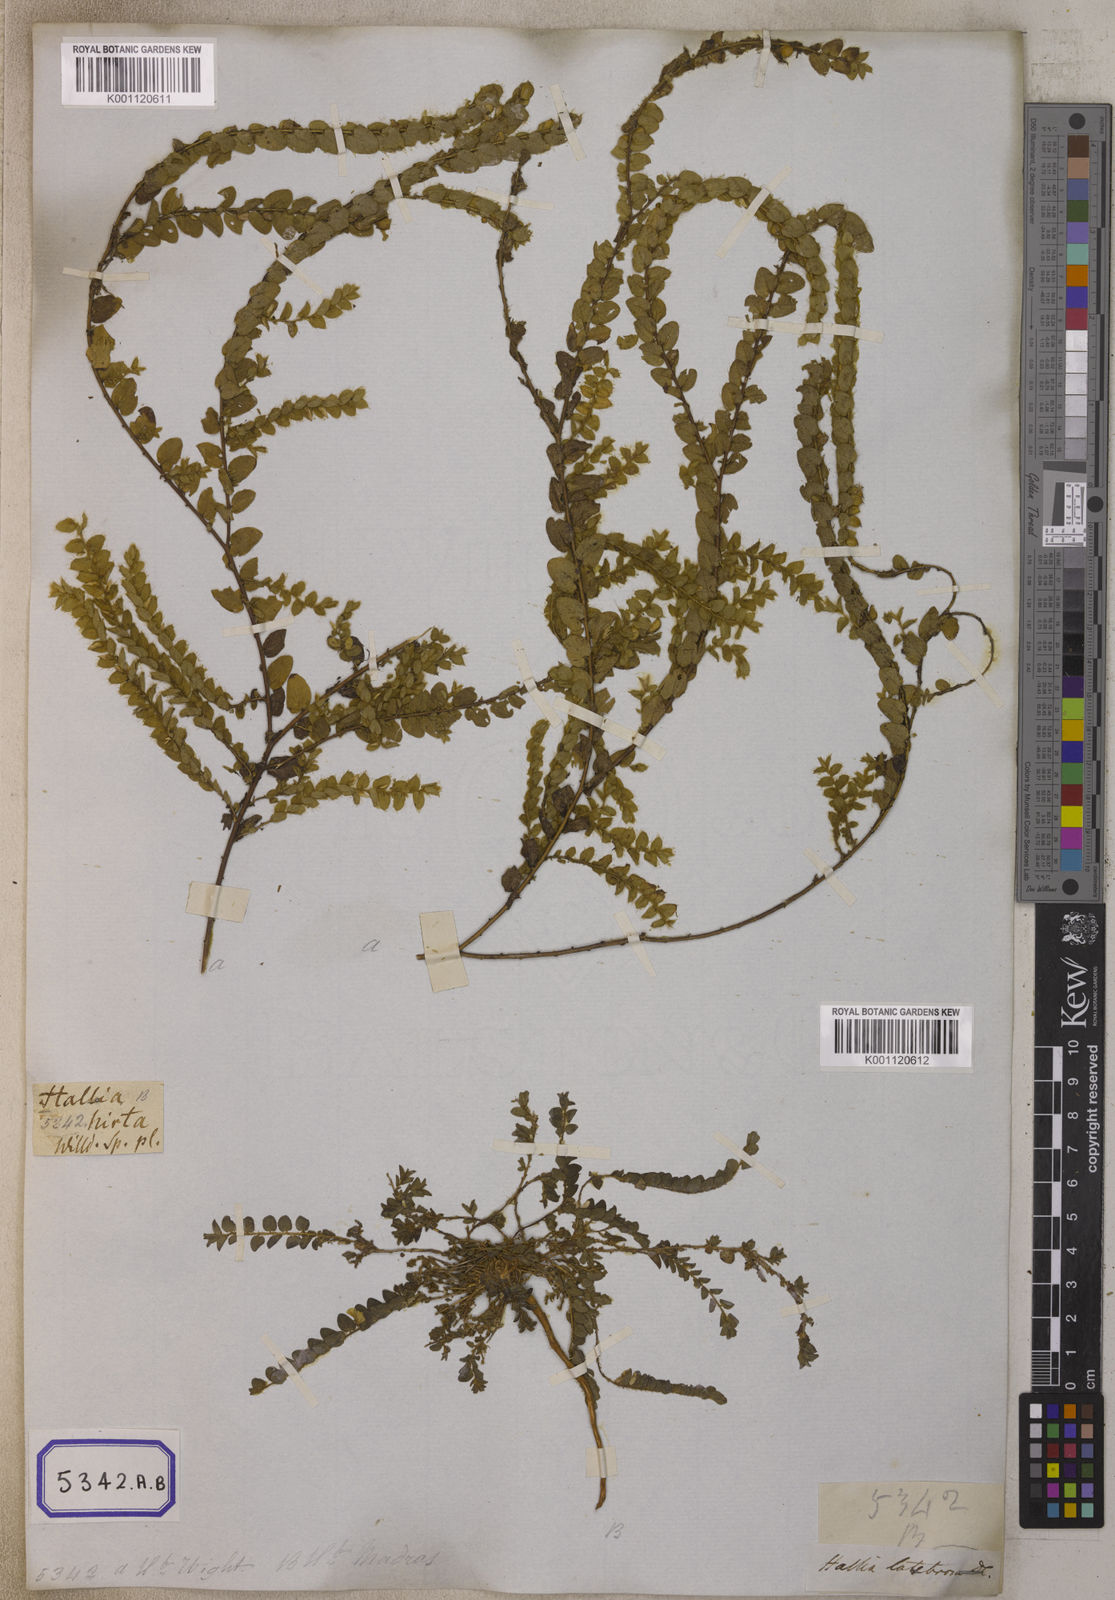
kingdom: Plantae
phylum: Tracheophyta
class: Magnoliopsida
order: Fabales
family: Fabaceae
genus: Crotalaria
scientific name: Crotalaria hebecarpa
